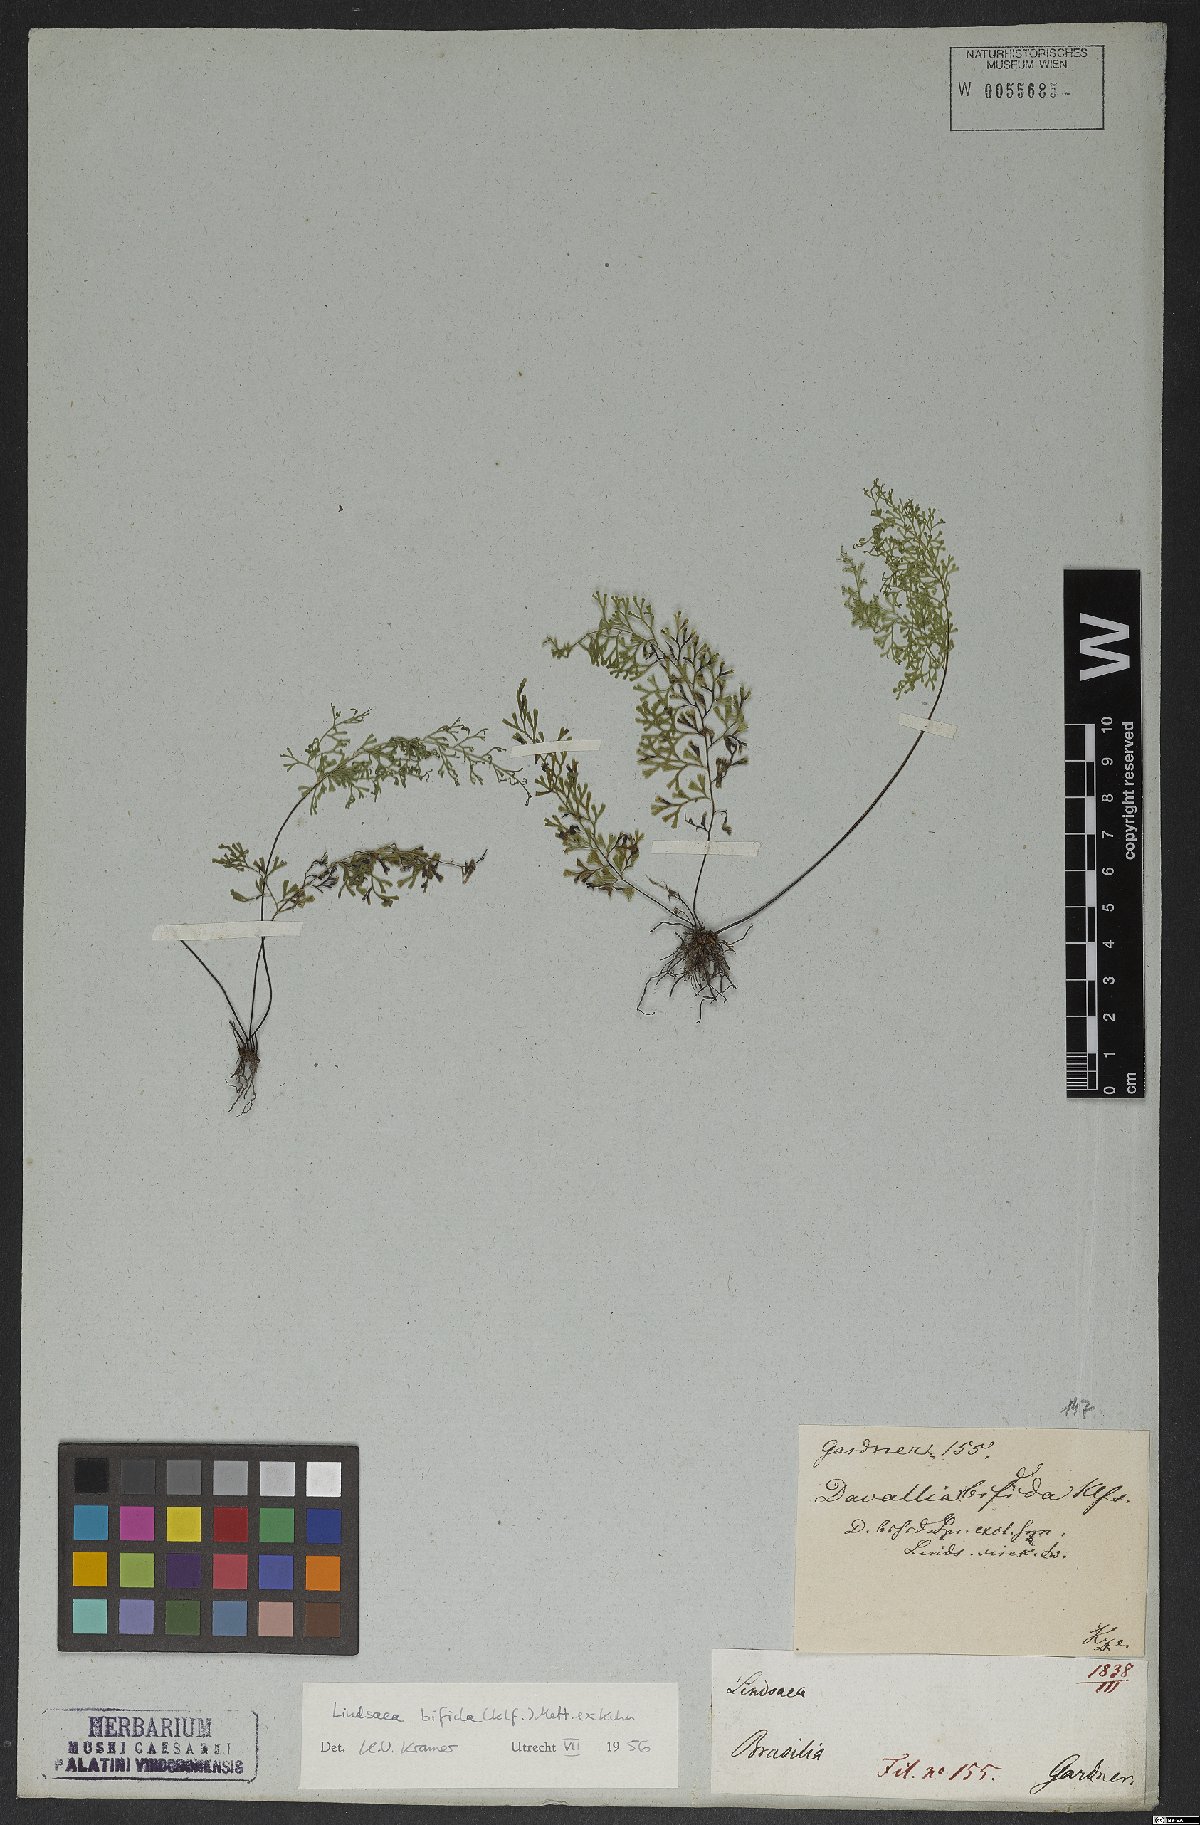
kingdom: Plantae
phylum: Tracheophyta
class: Polypodiopsida
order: Polypodiales
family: Lindsaeaceae
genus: Lindsaea
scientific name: Lindsaea bifida
